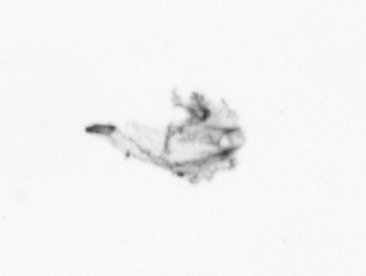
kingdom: Animalia
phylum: Arthropoda
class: Maxillopoda
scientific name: Maxillopoda
